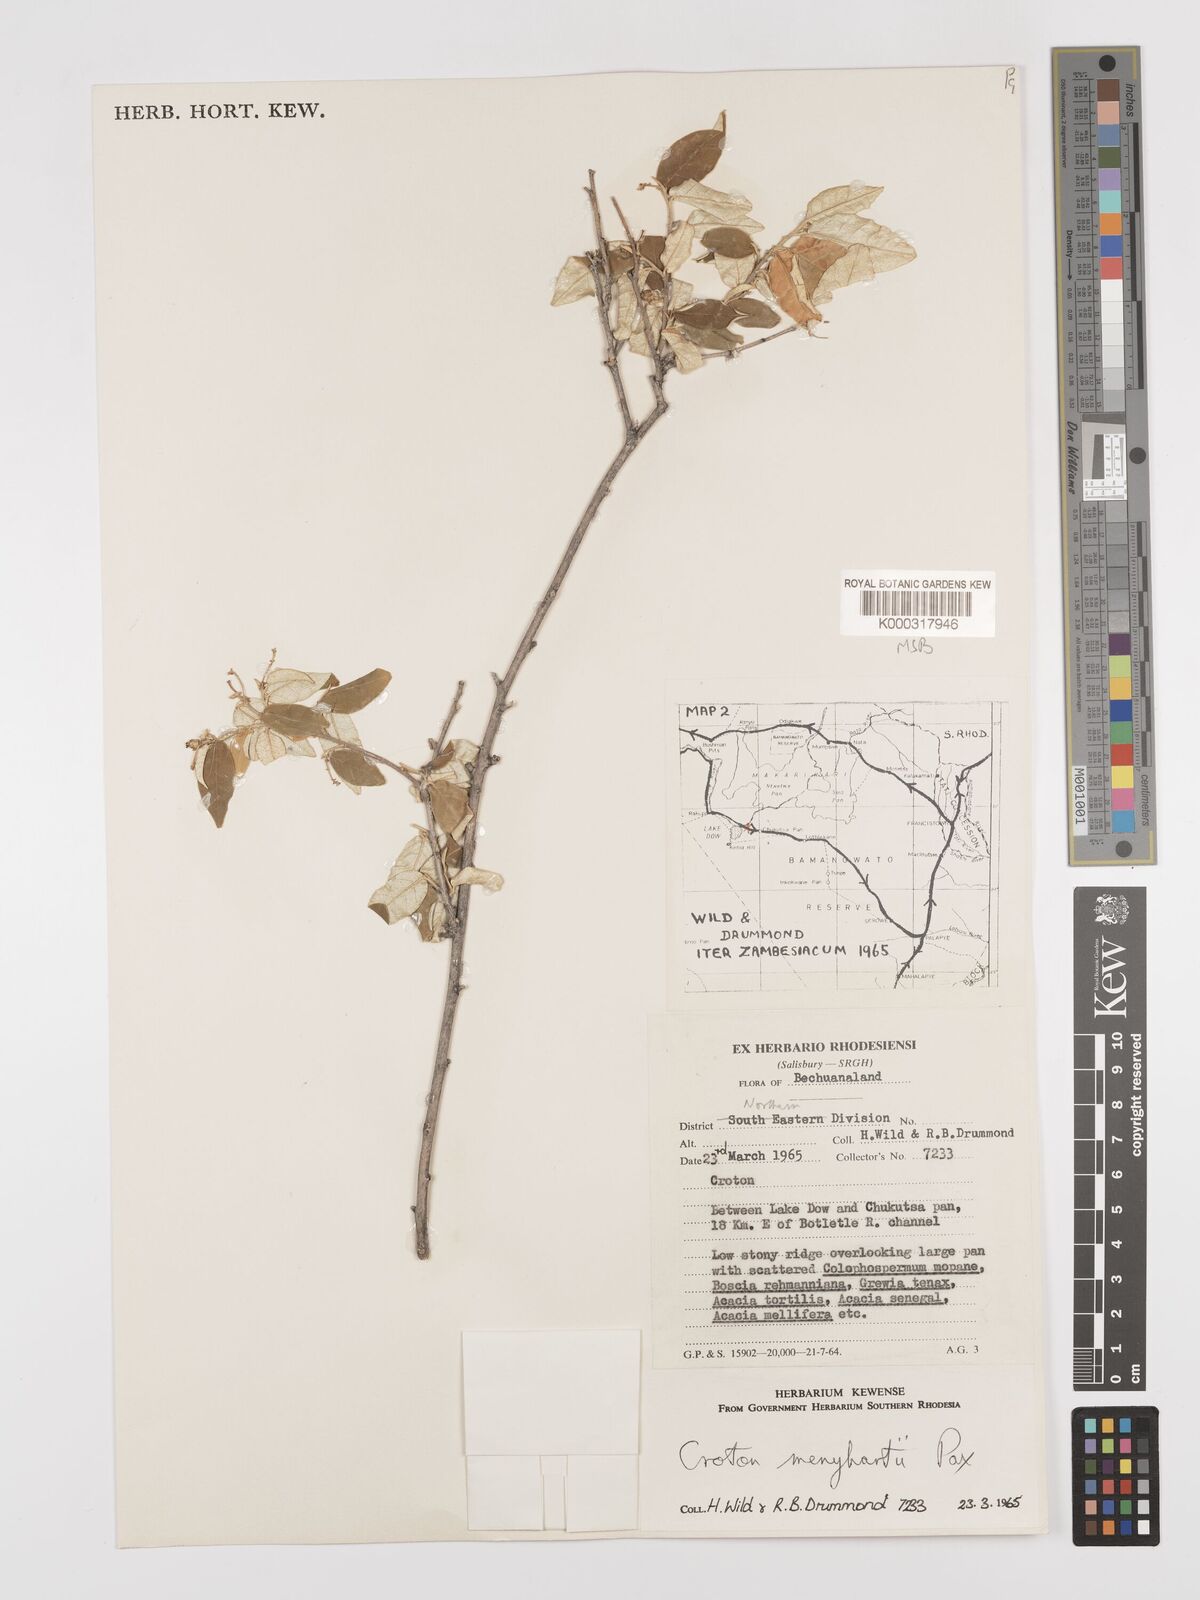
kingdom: Plantae
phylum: Tracheophyta
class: Magnoliopsida
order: Malpighiales
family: Euphorbiaceae
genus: Croton
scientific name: Croton menyharthii
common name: Rough-leaved croton
